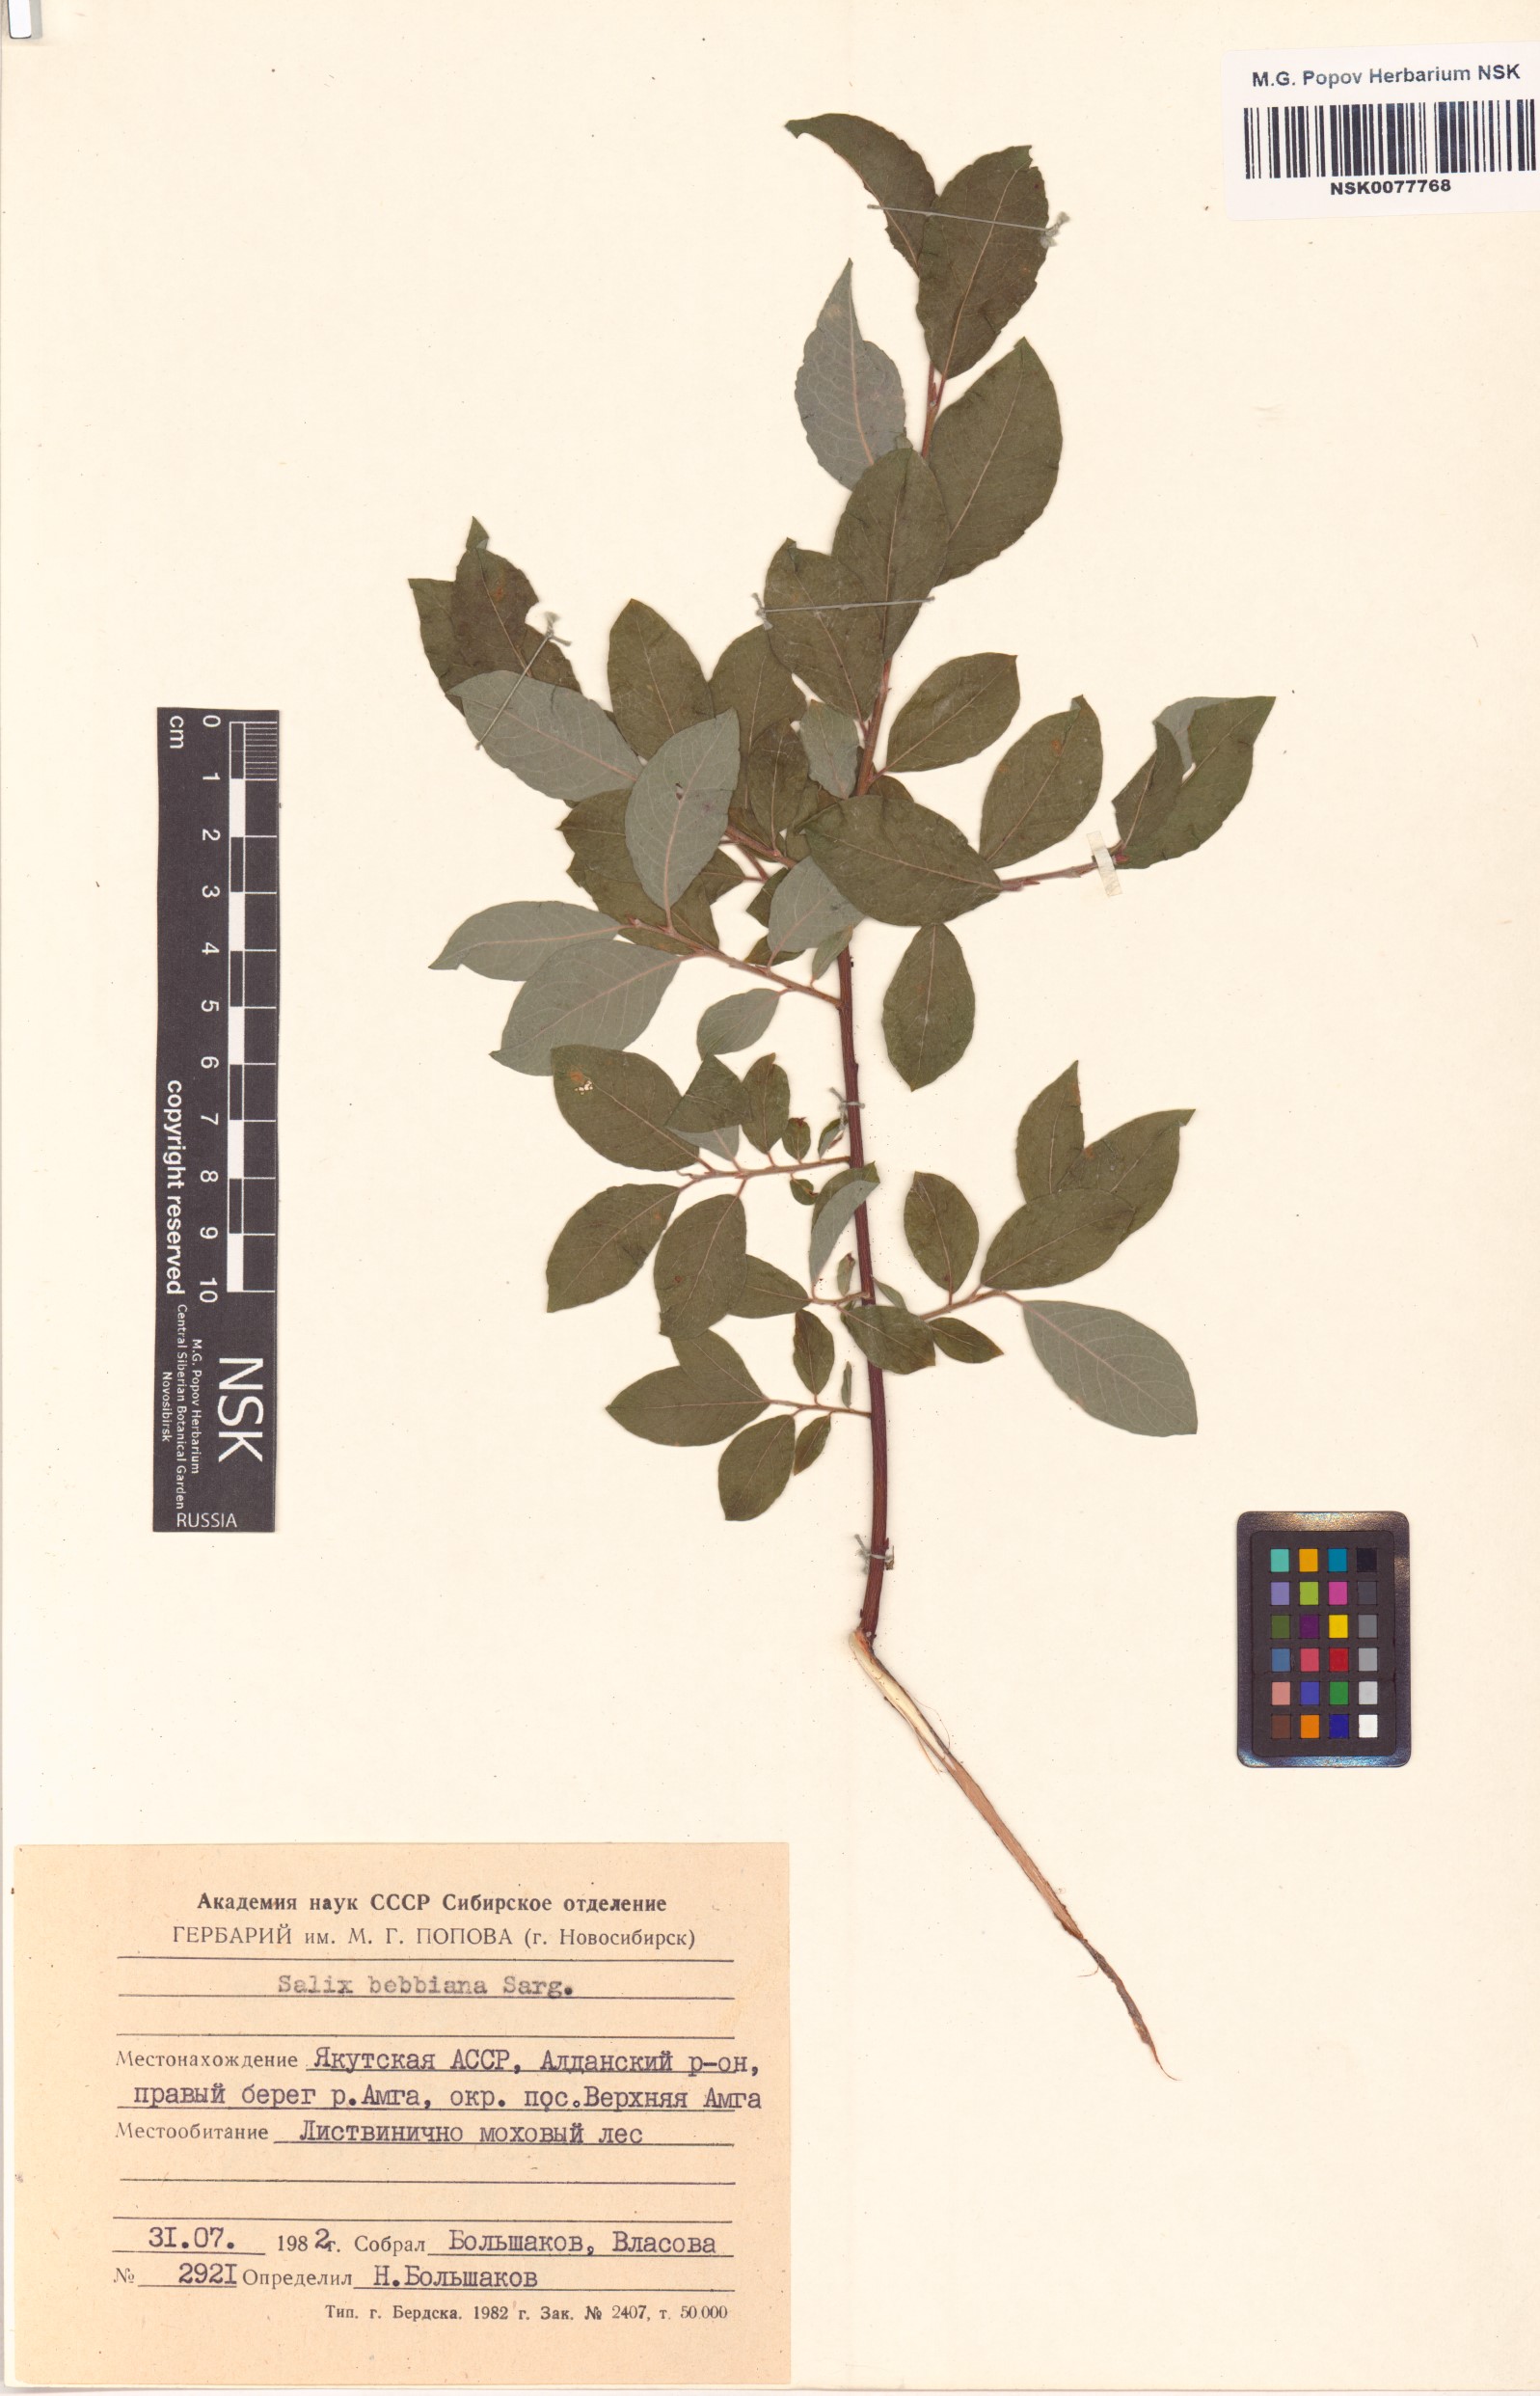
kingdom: Plantae
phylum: Tracheophyta
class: Magnoliopsida
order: Malpighiales
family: Salicaceae
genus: Salix
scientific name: Salix bebbiana
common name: Bebb's willow
